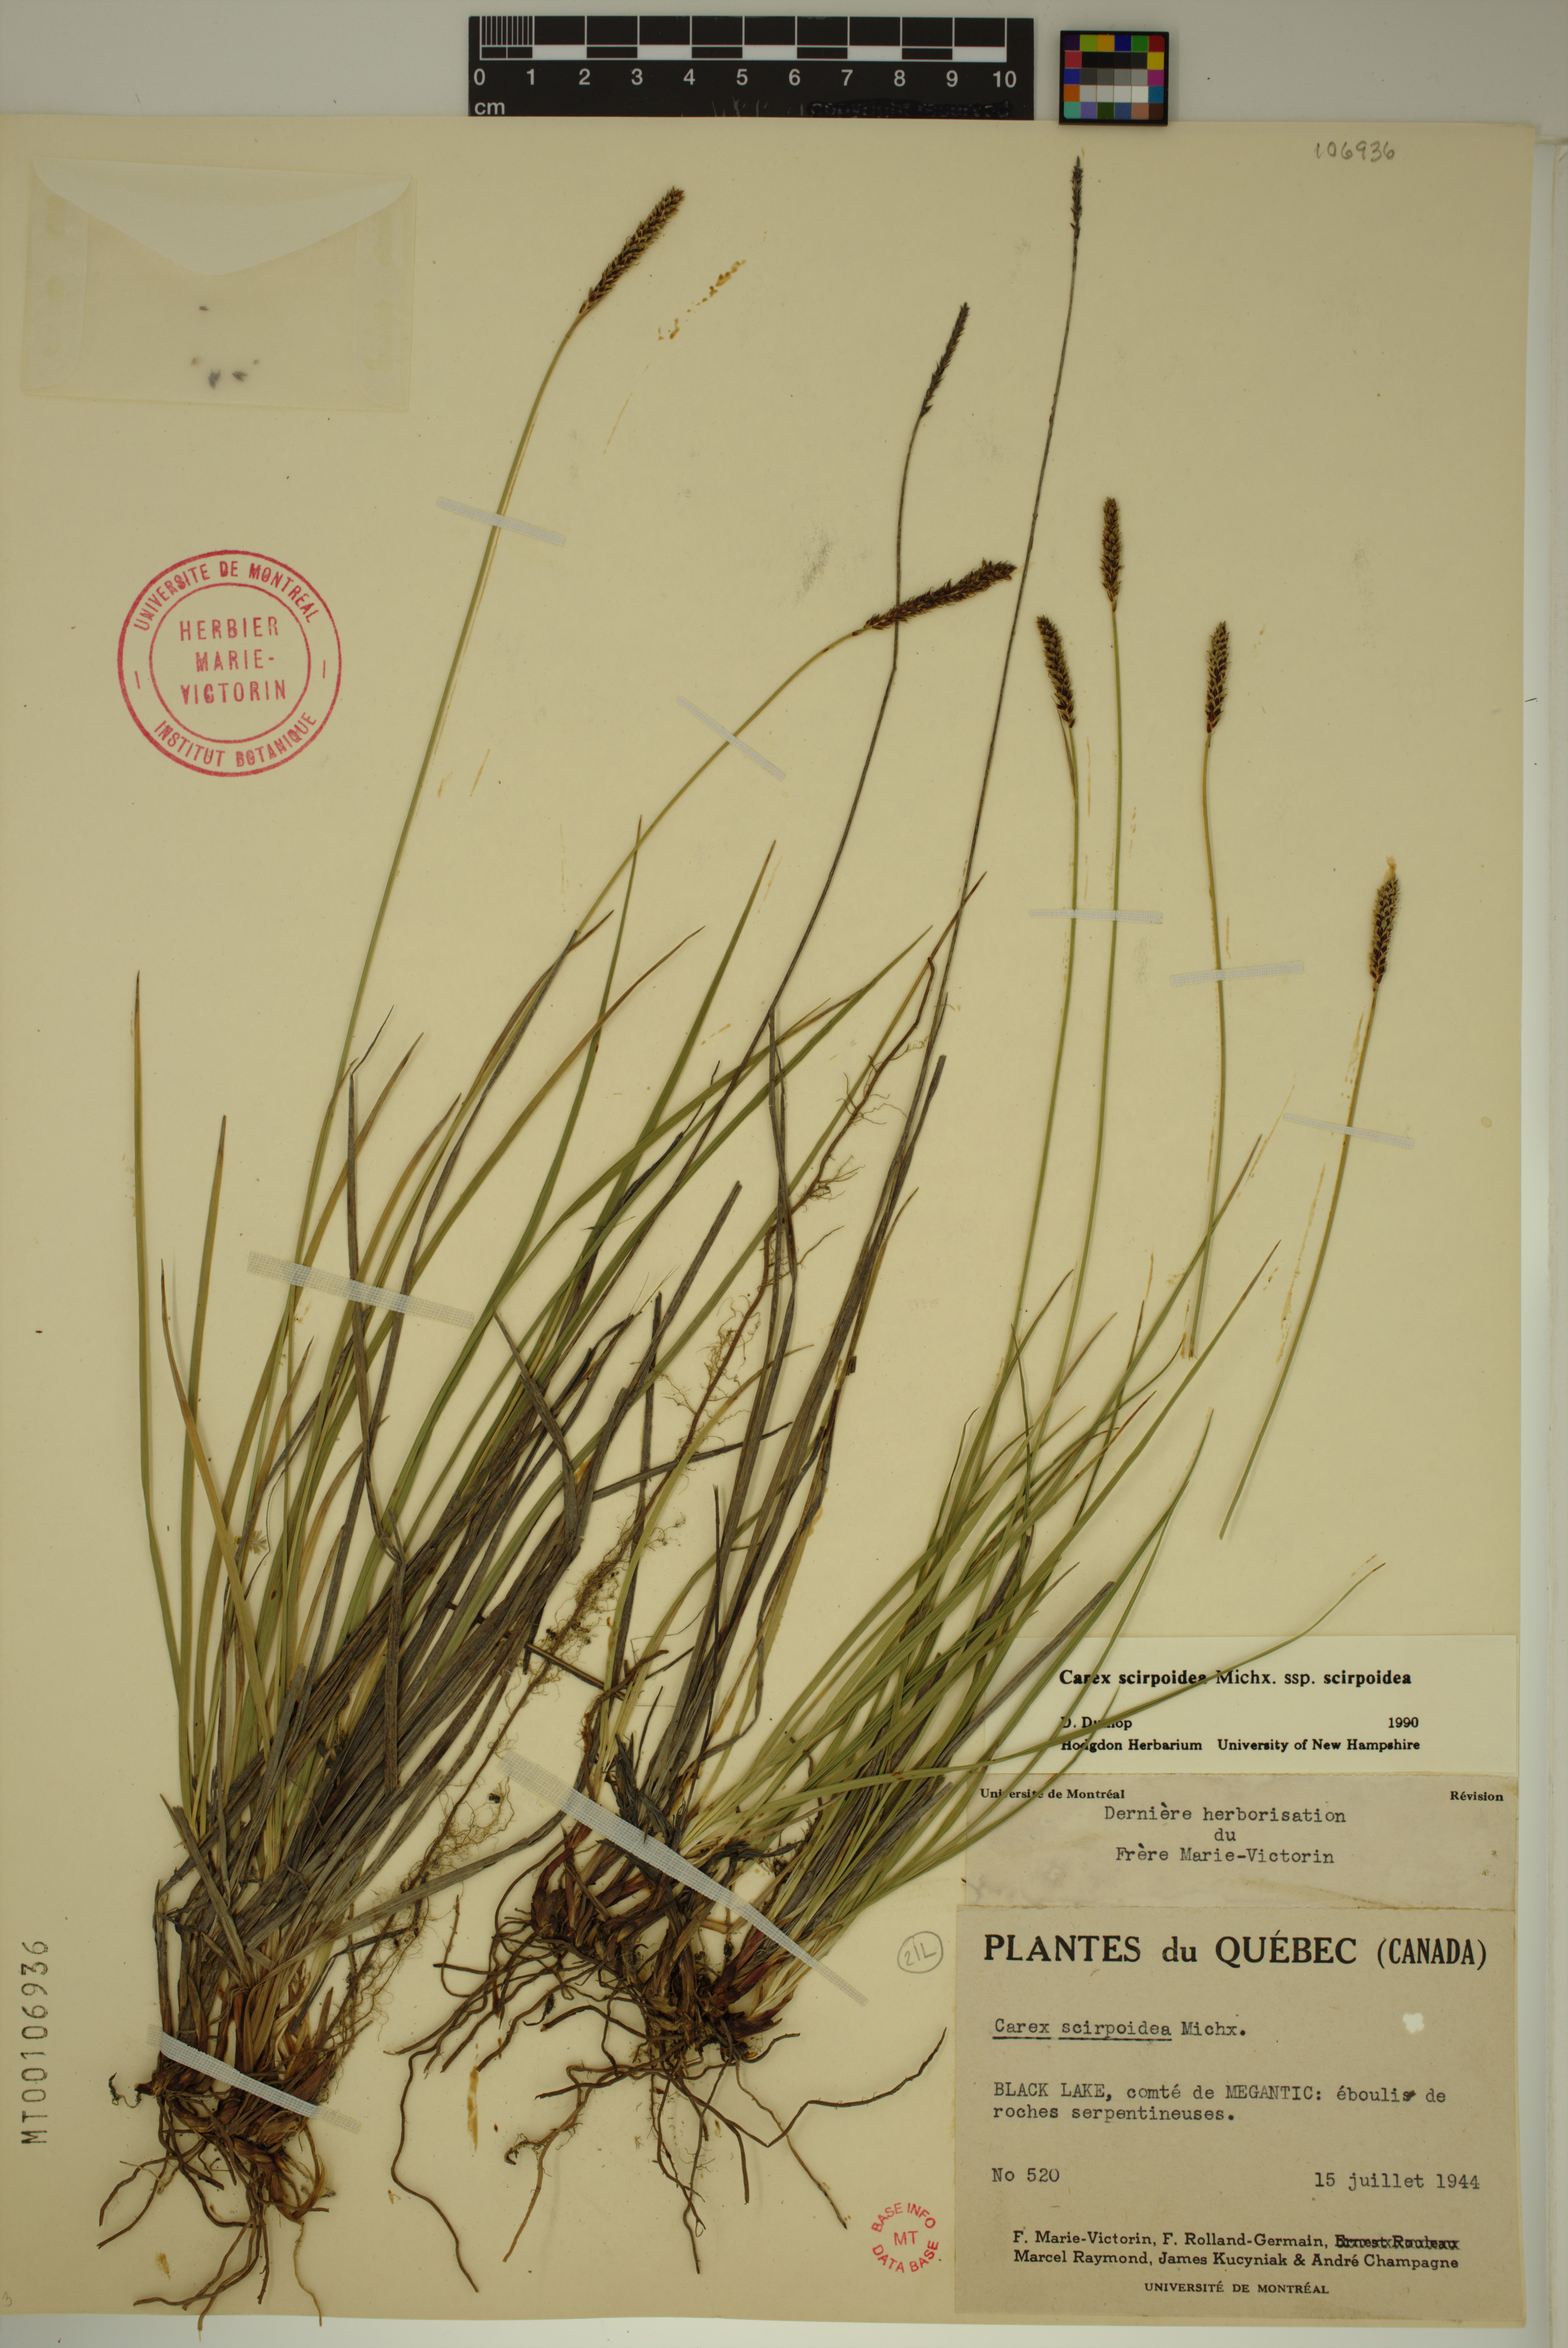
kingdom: Plantae
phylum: Tracheophyta
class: Liliopsida
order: Poales
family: Cyperaceae
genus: Carex
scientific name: Carex scirpoidea
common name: Canada single-spike sedge
